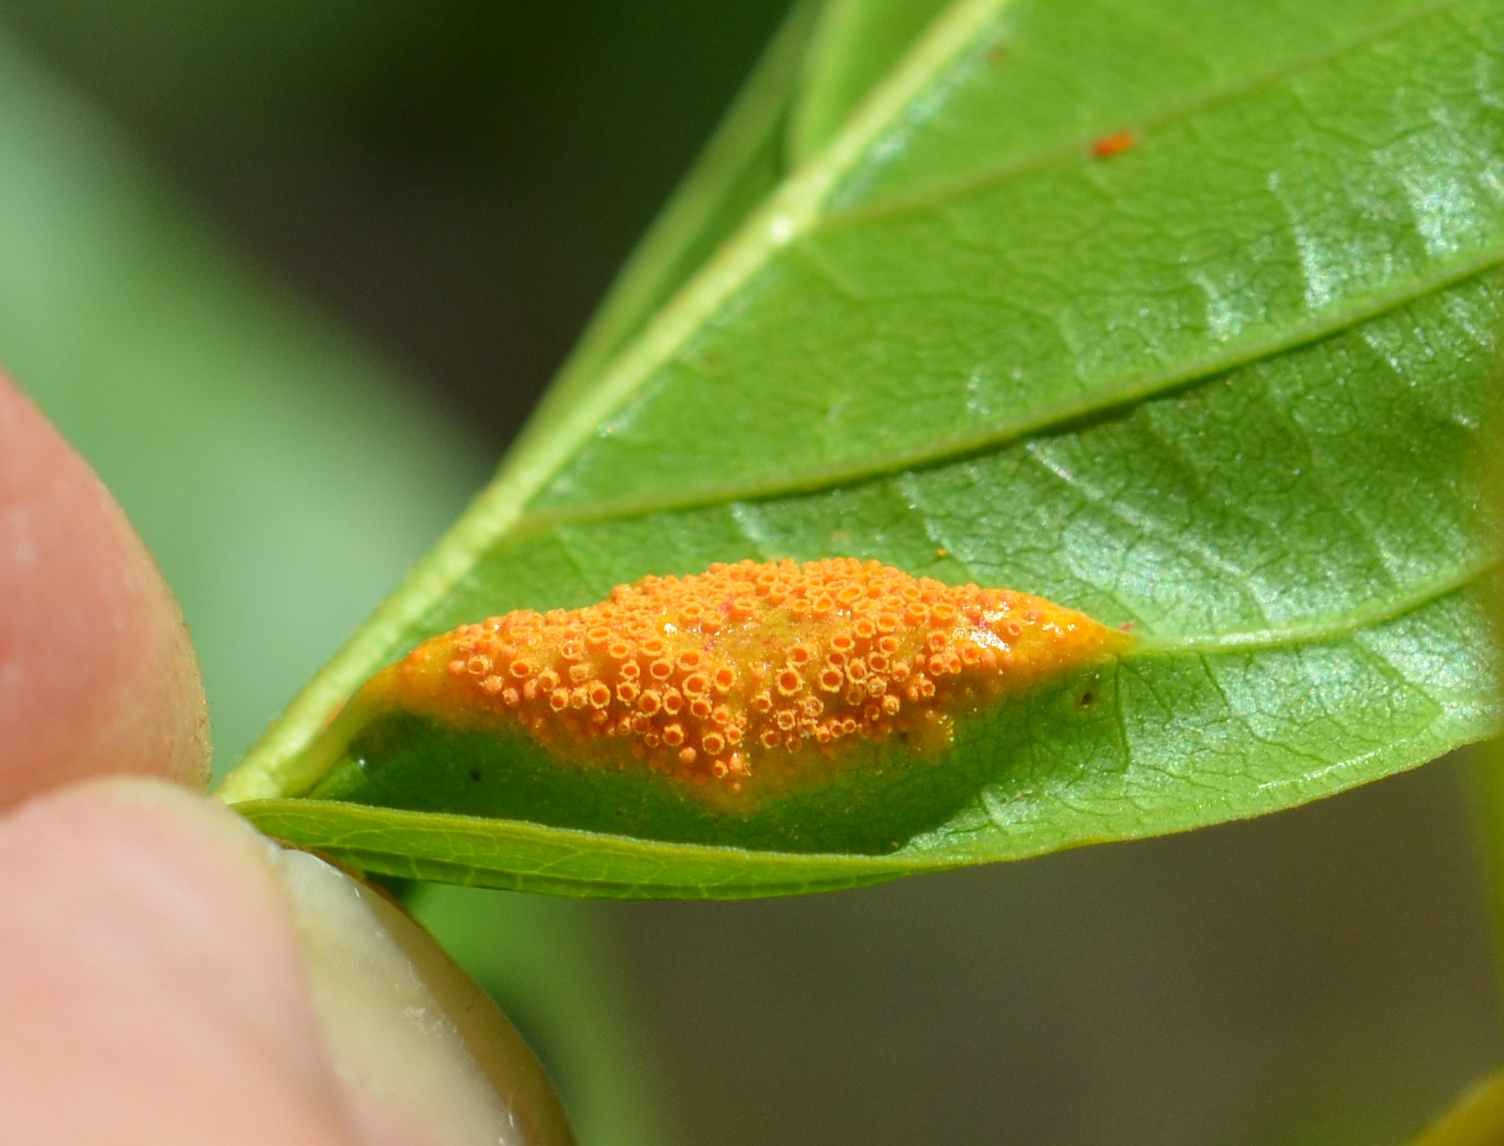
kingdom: Fungi
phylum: Basidiomycota
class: Pucciniomycetes
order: Pucciniales
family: Pucciniaceae
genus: Puccinia
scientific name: Puccinia coronata
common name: Crown rust
